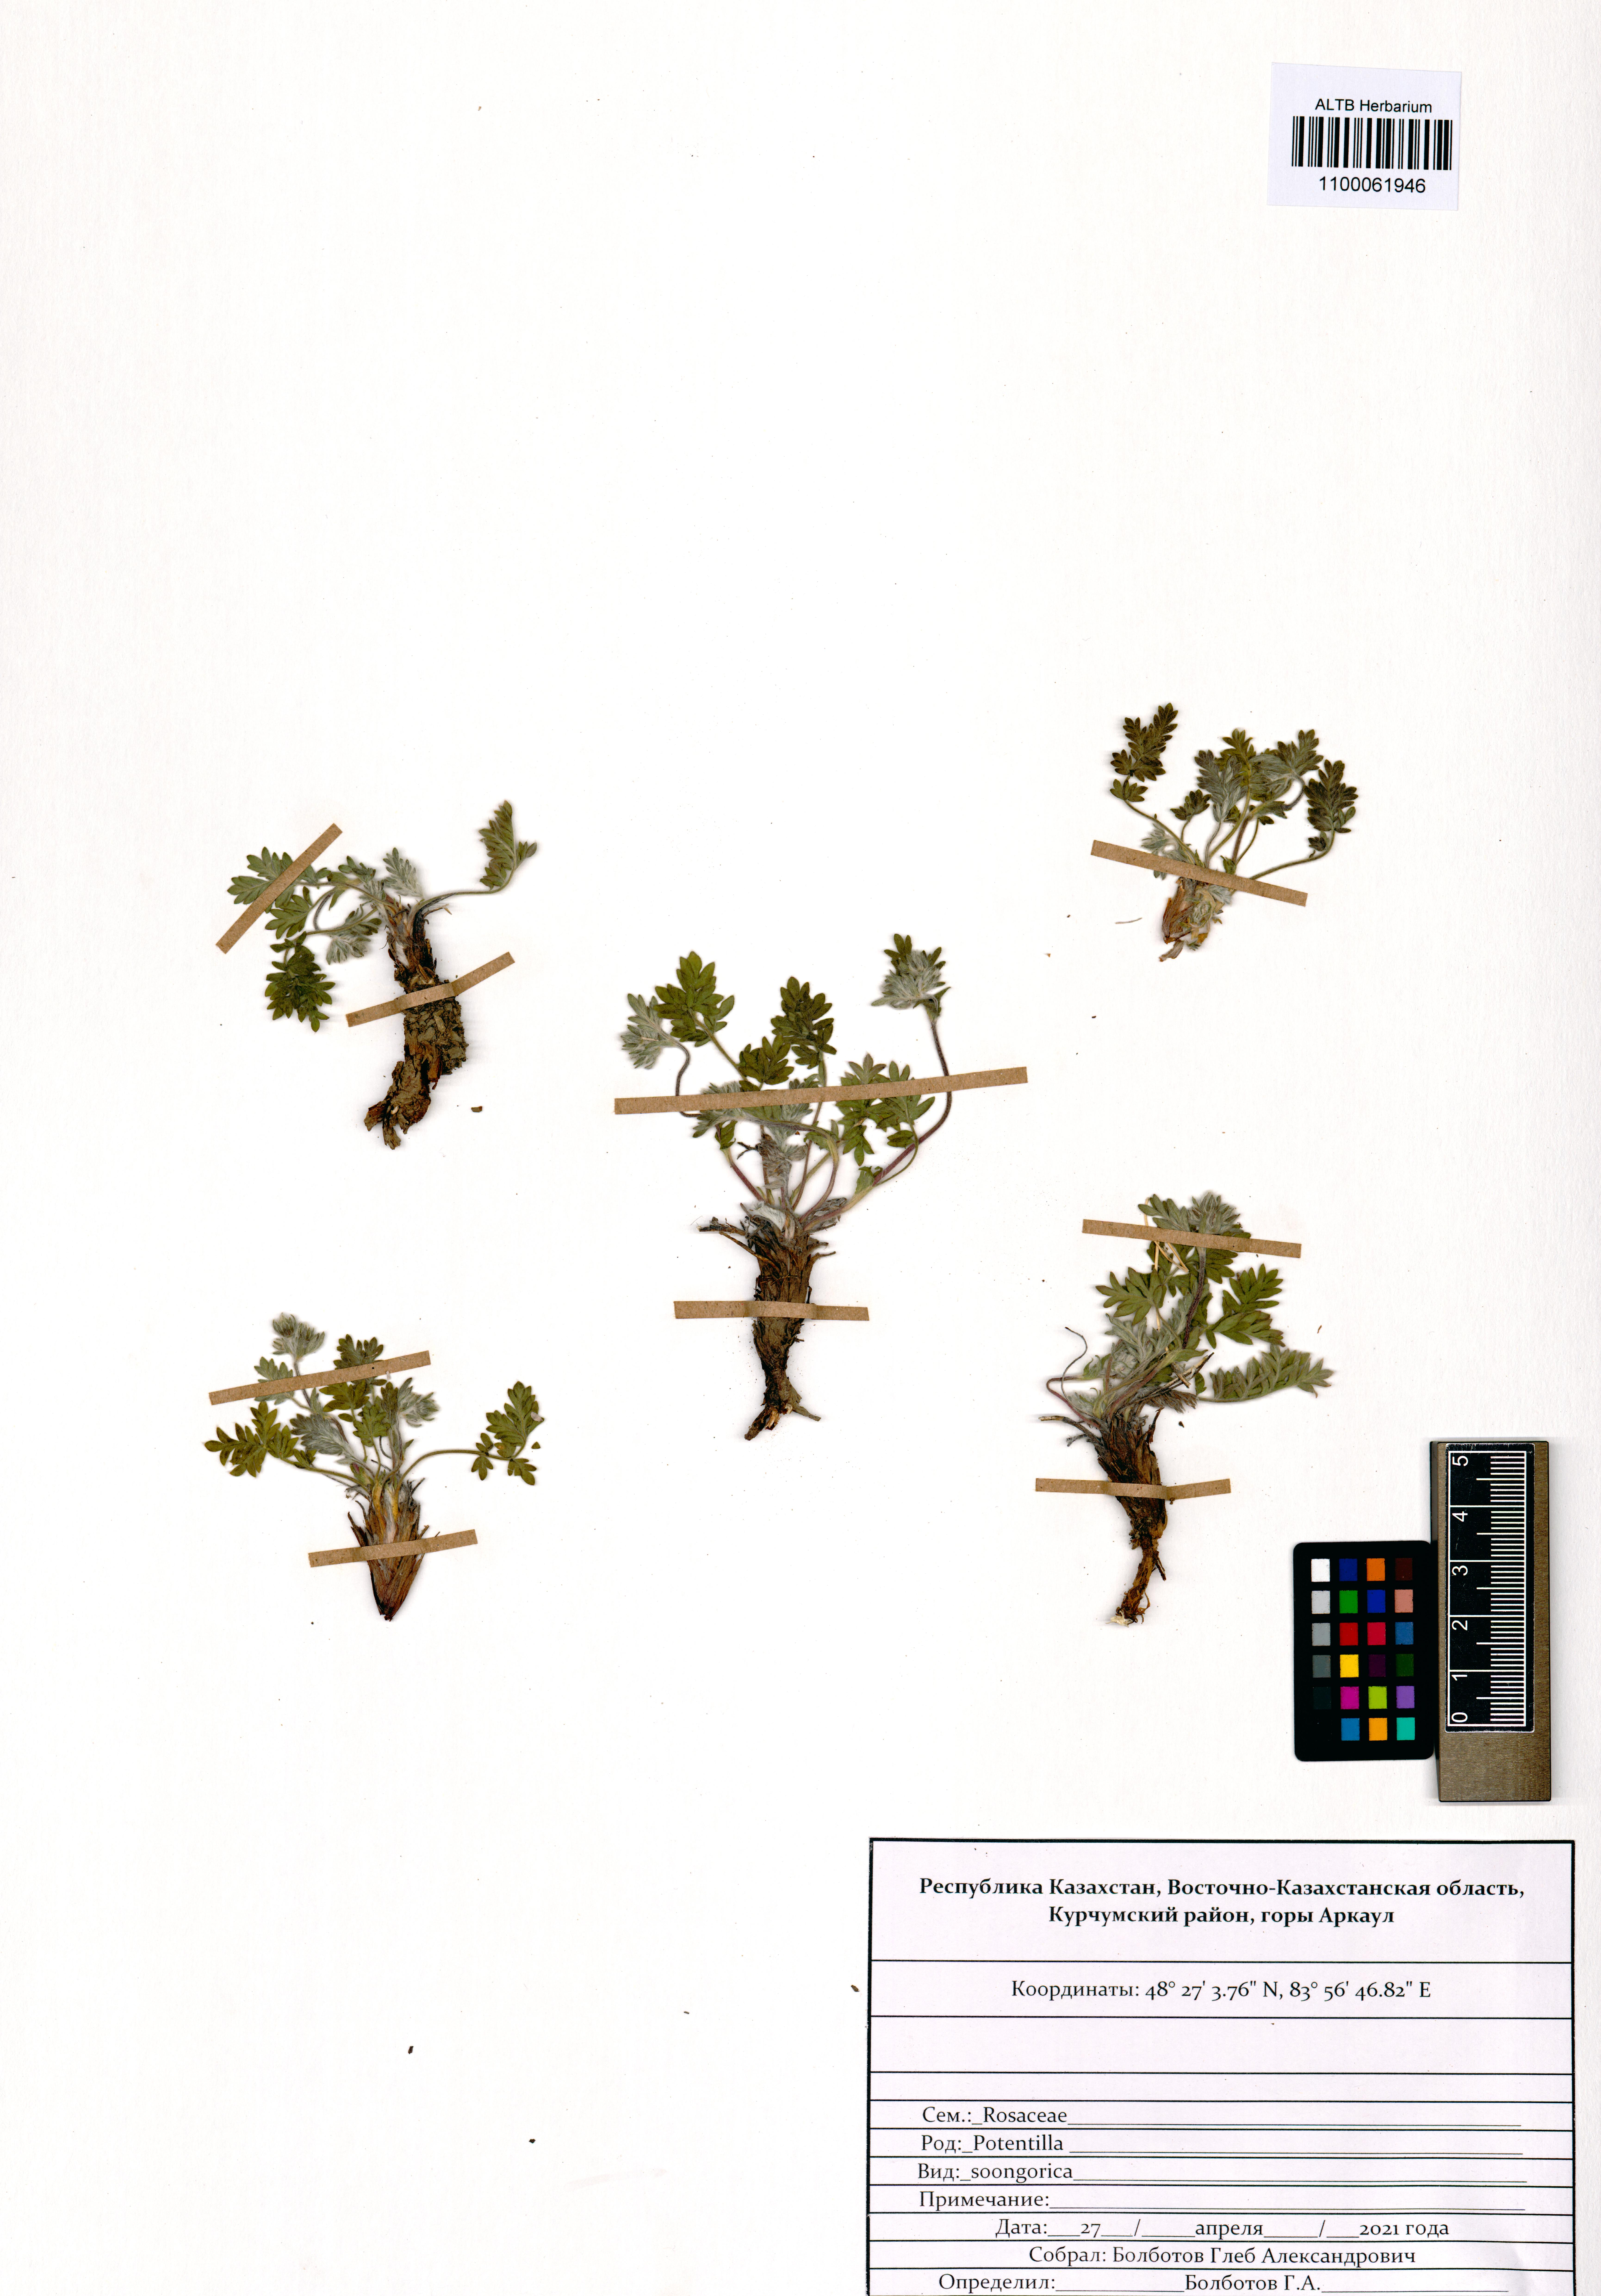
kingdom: Plantae
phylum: Tracheophyta
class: Magnoliopsida
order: Rosales
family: Rosaceae
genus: Potentilla
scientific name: Potentilla soongorica
